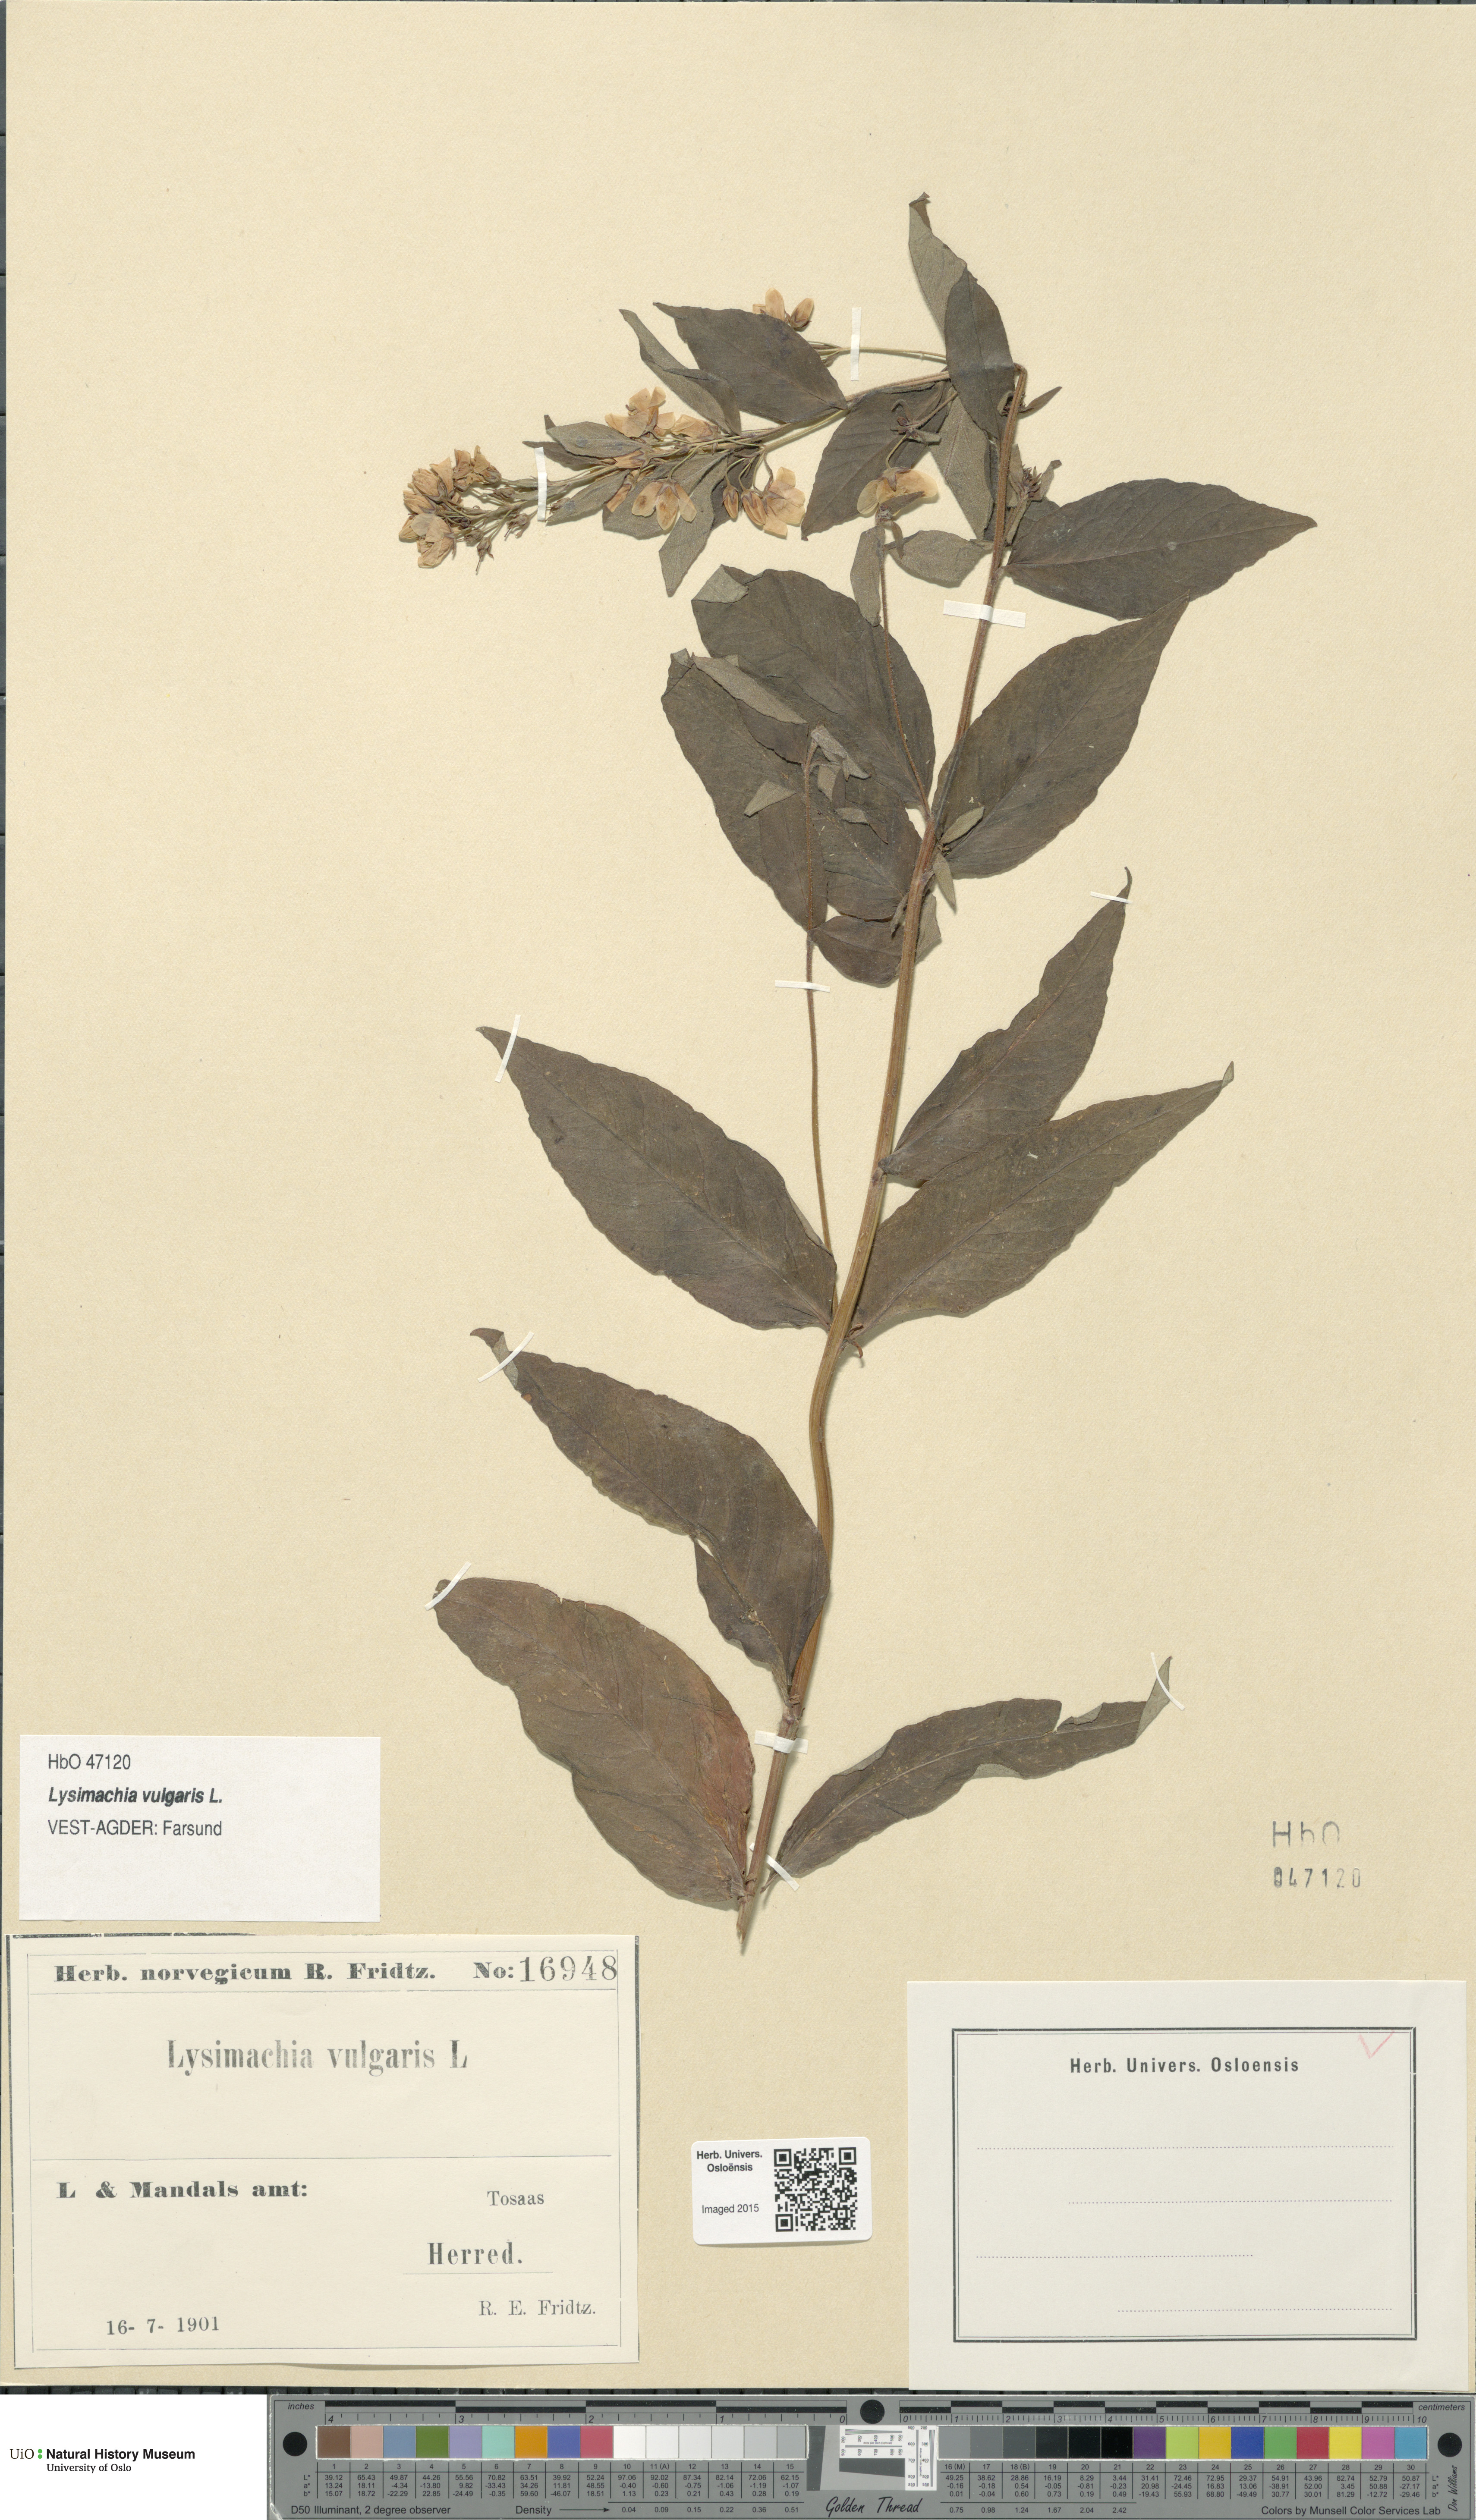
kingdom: Plantae
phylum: Tracheophyta
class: Magnoliopsida
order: Ericales
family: Primulaceae
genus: Lysimachia
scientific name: Lysimachia vulgaris
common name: Yellow loosestrife
